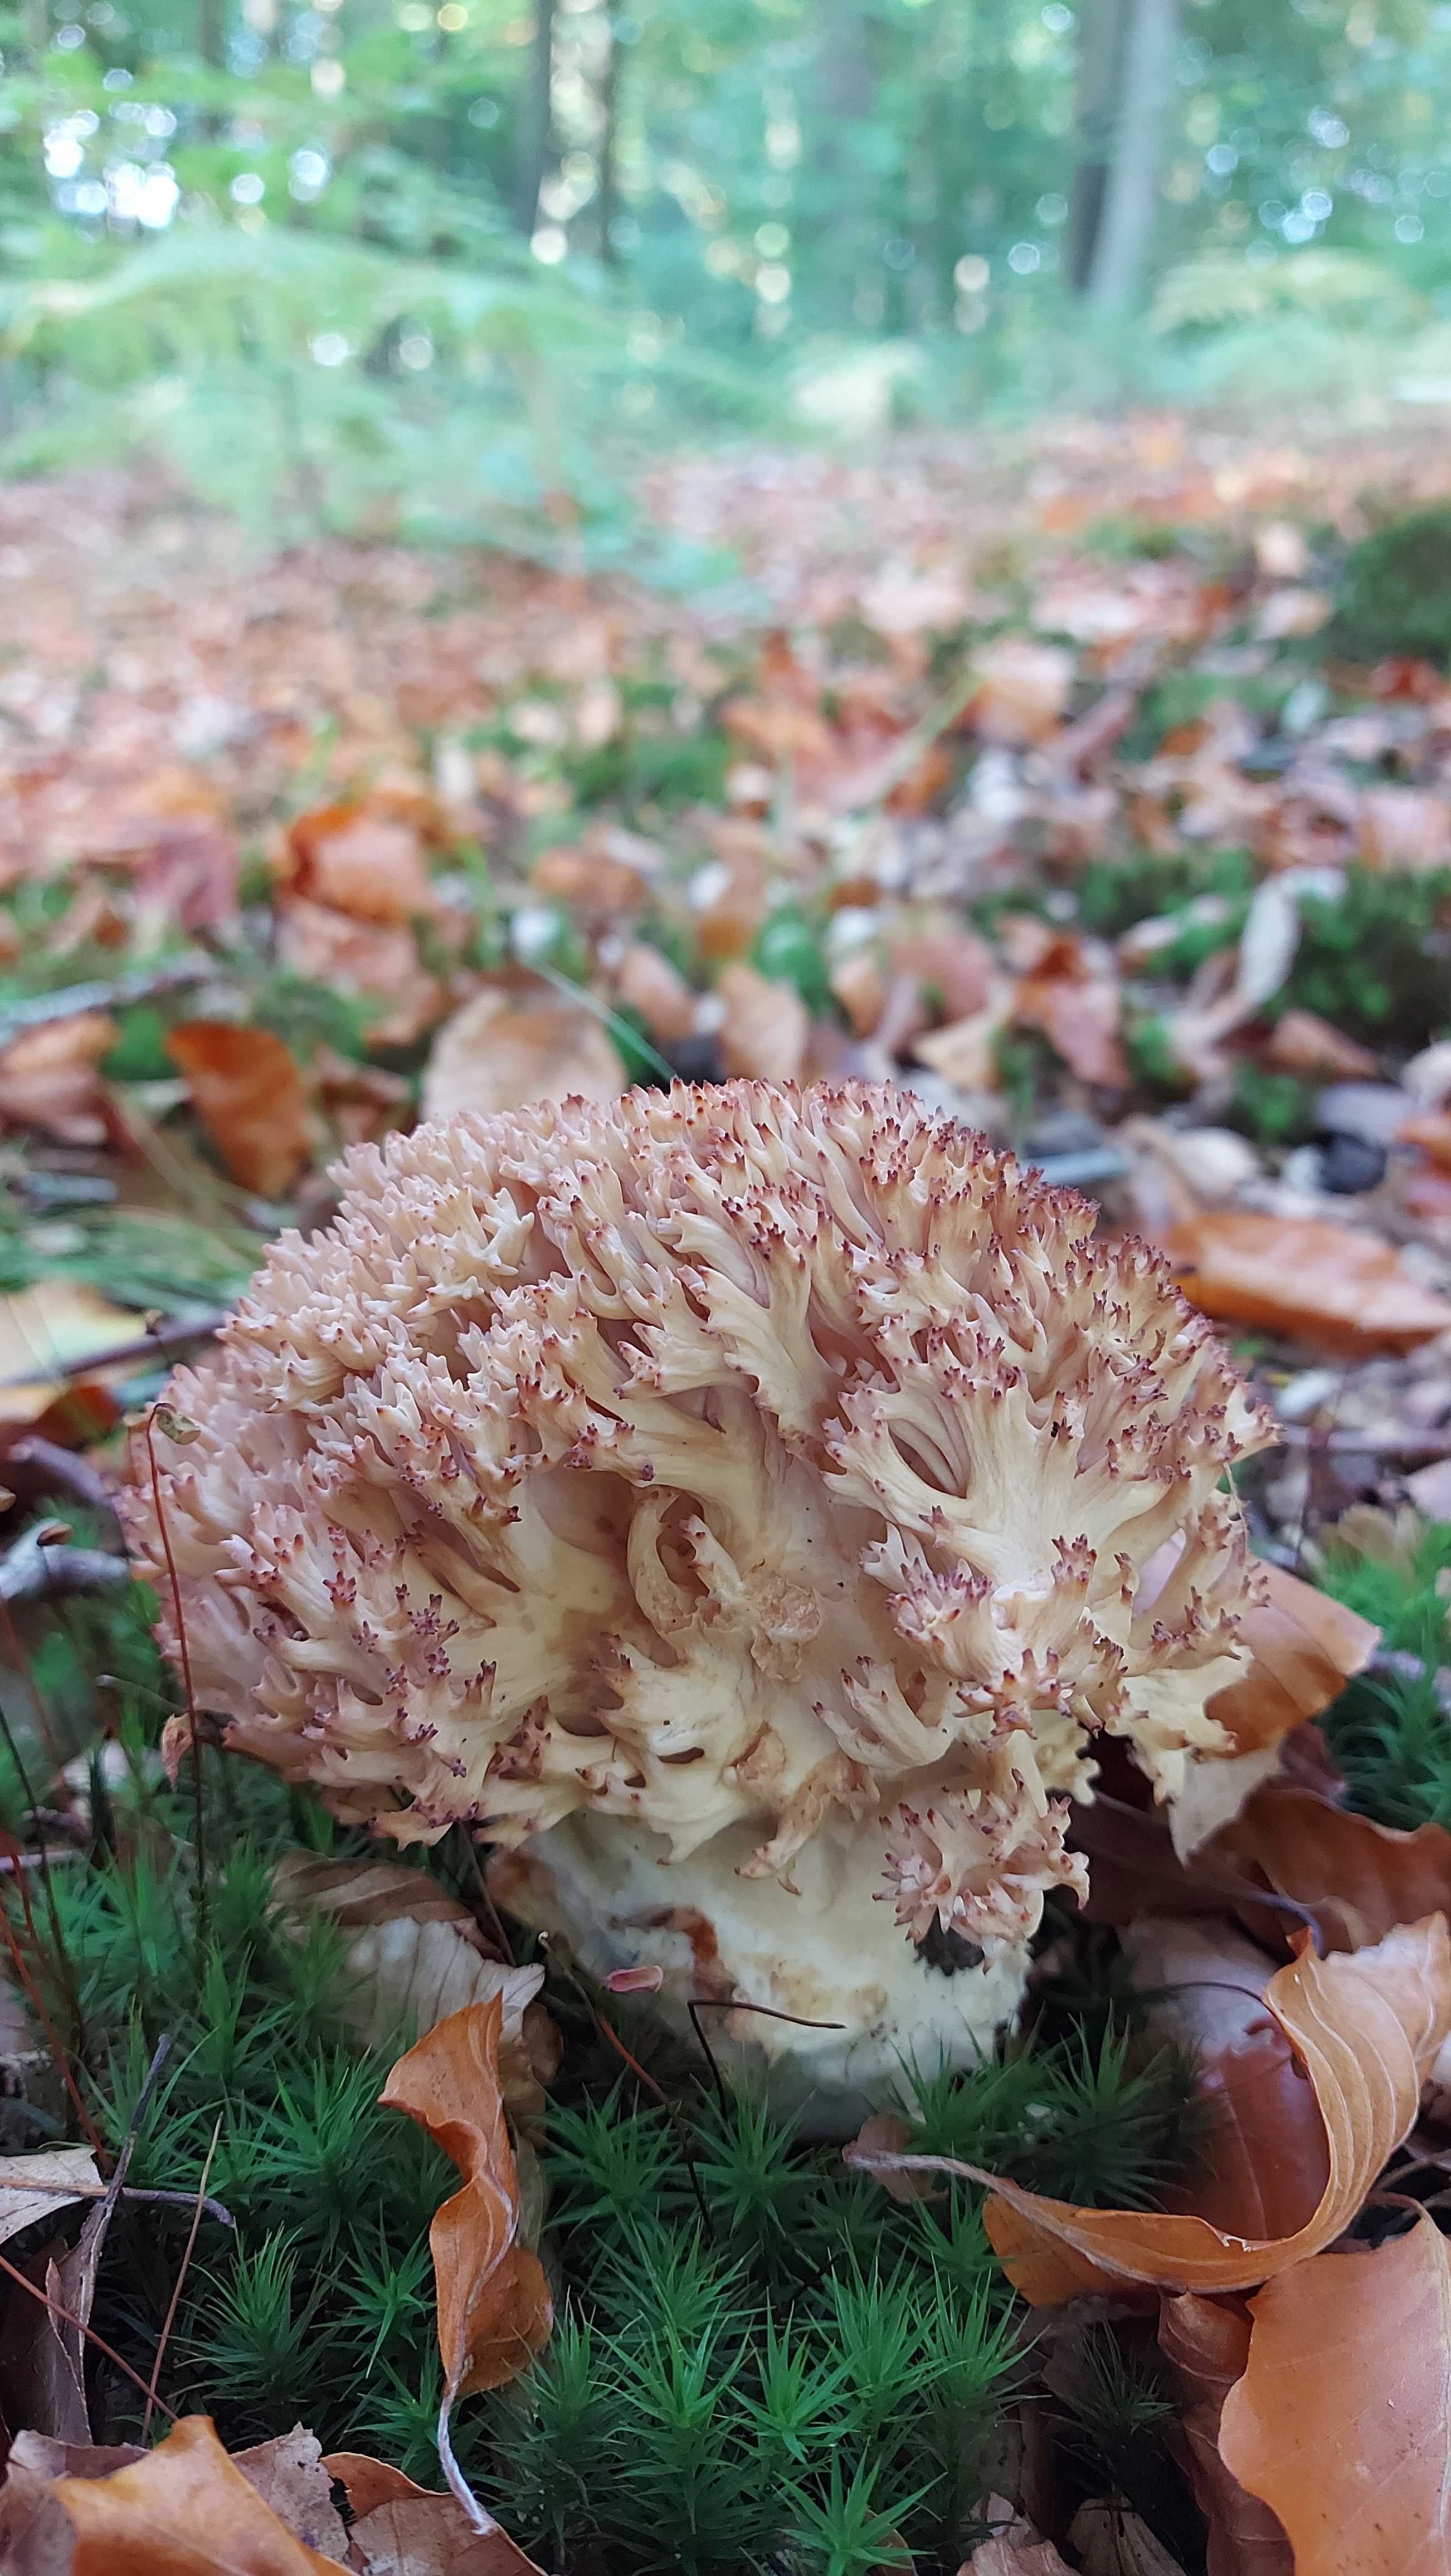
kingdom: Fungi
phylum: Basidiomycota
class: Agaricomycetes
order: Gomphales
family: Gomphaceae
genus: Ramaria
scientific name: Ramaria botrytis
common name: drue-koralsvamp
